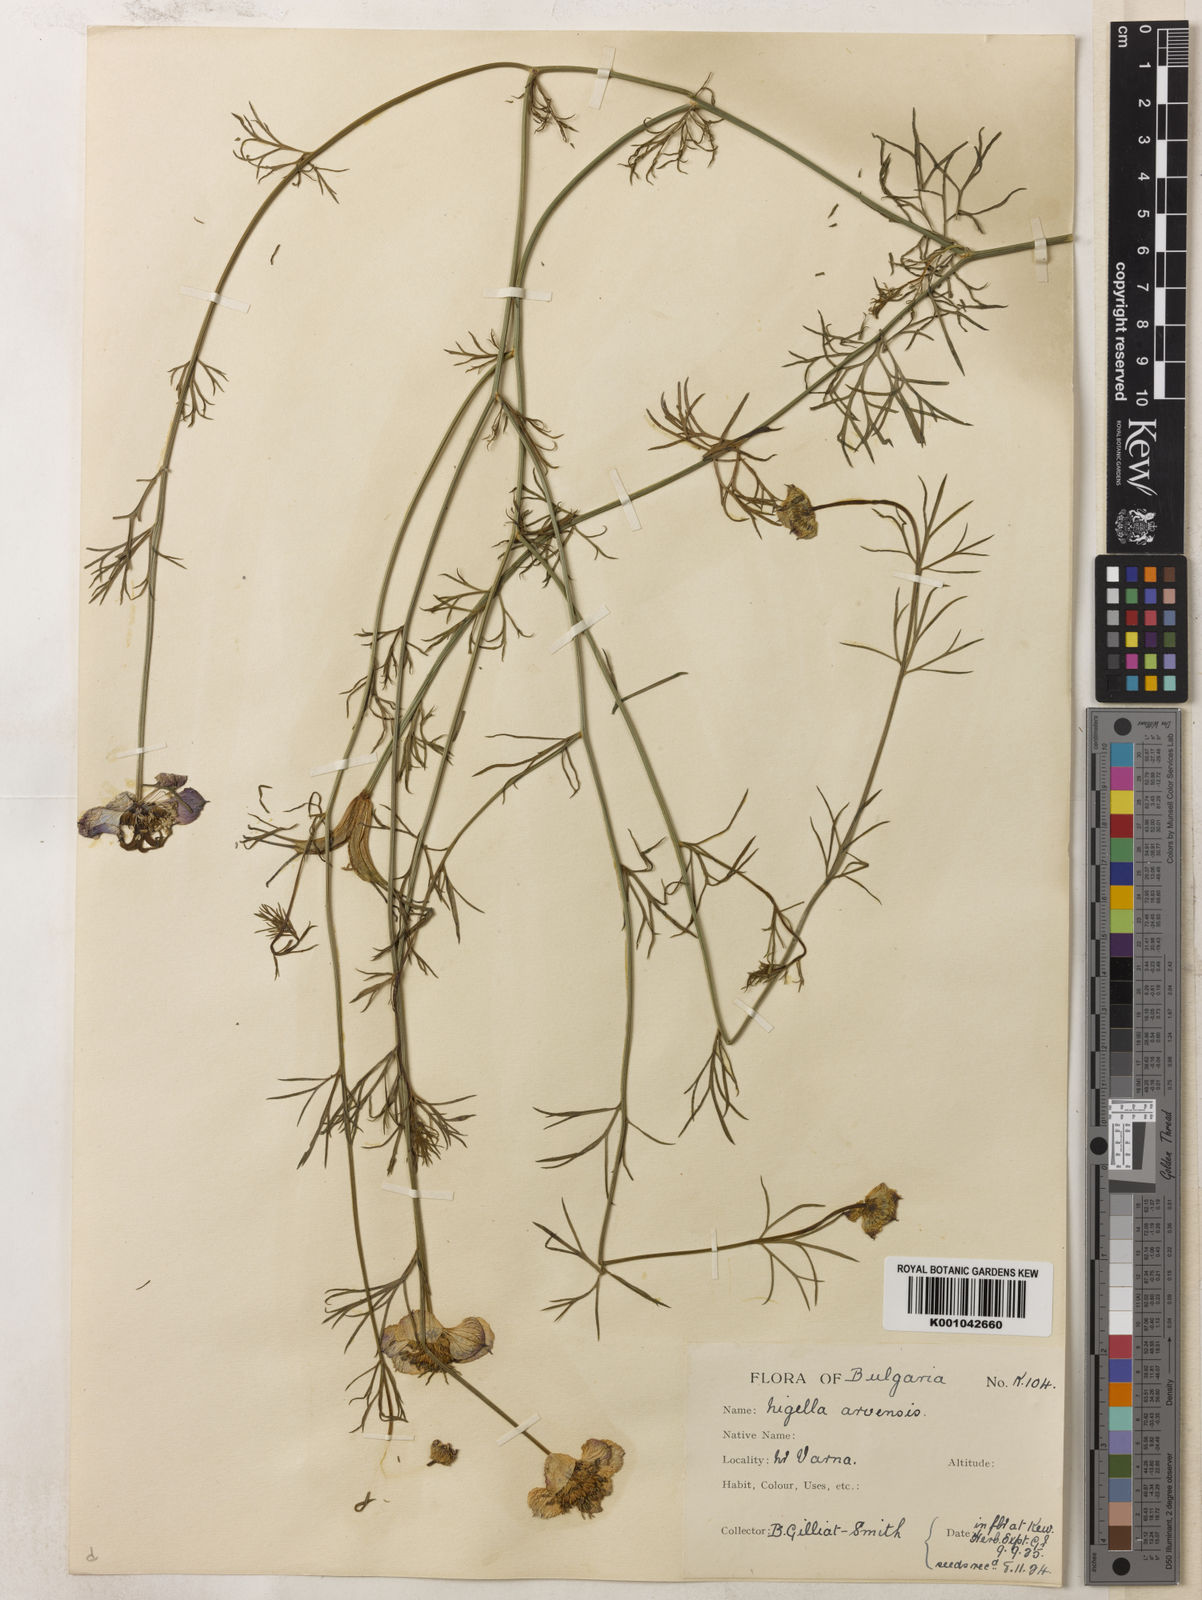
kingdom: Plantae
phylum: Tracheophyta
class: Magnoliopsida
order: Ranunculales
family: Ranunculaceae
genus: Nigella
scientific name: Nigella arvensis
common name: Wild fennel-flower
